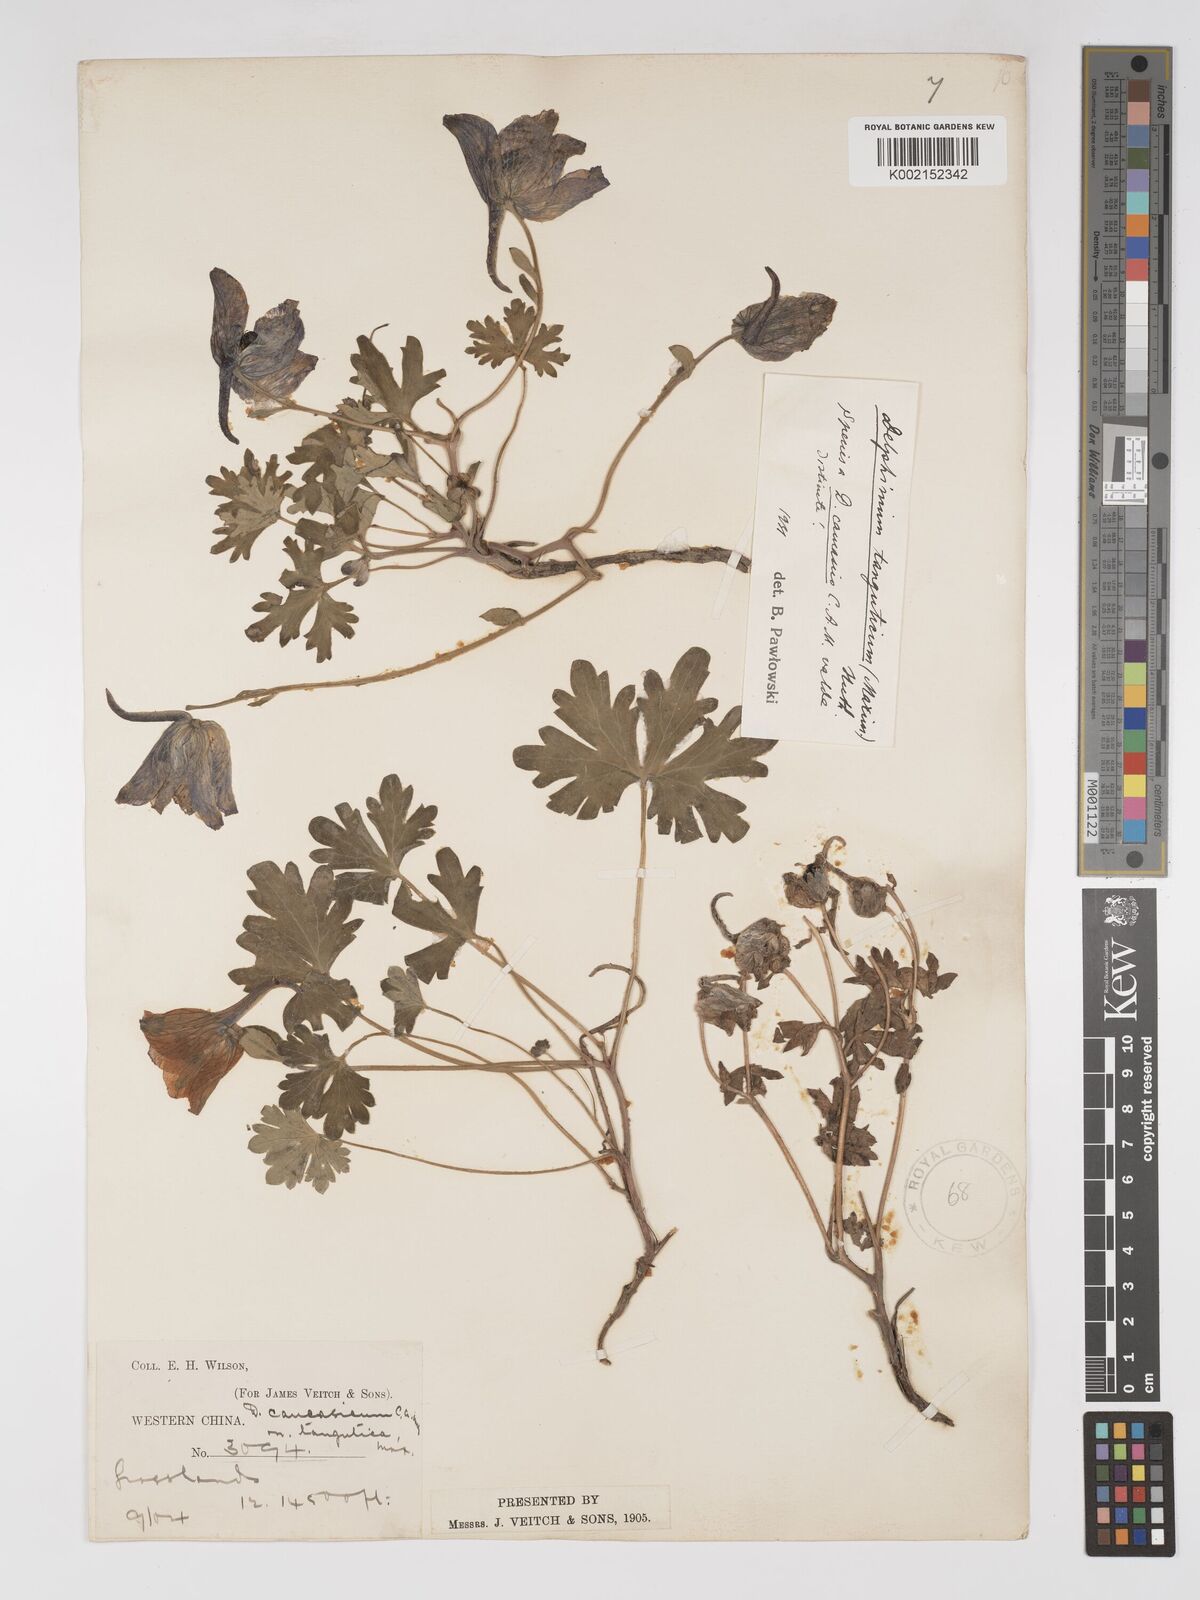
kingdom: Plantae
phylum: Tracheophyta
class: Magnoliopsida
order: Ranunculales
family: Ranunculaceae
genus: Delphinium
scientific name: Delphinium pylzowii
